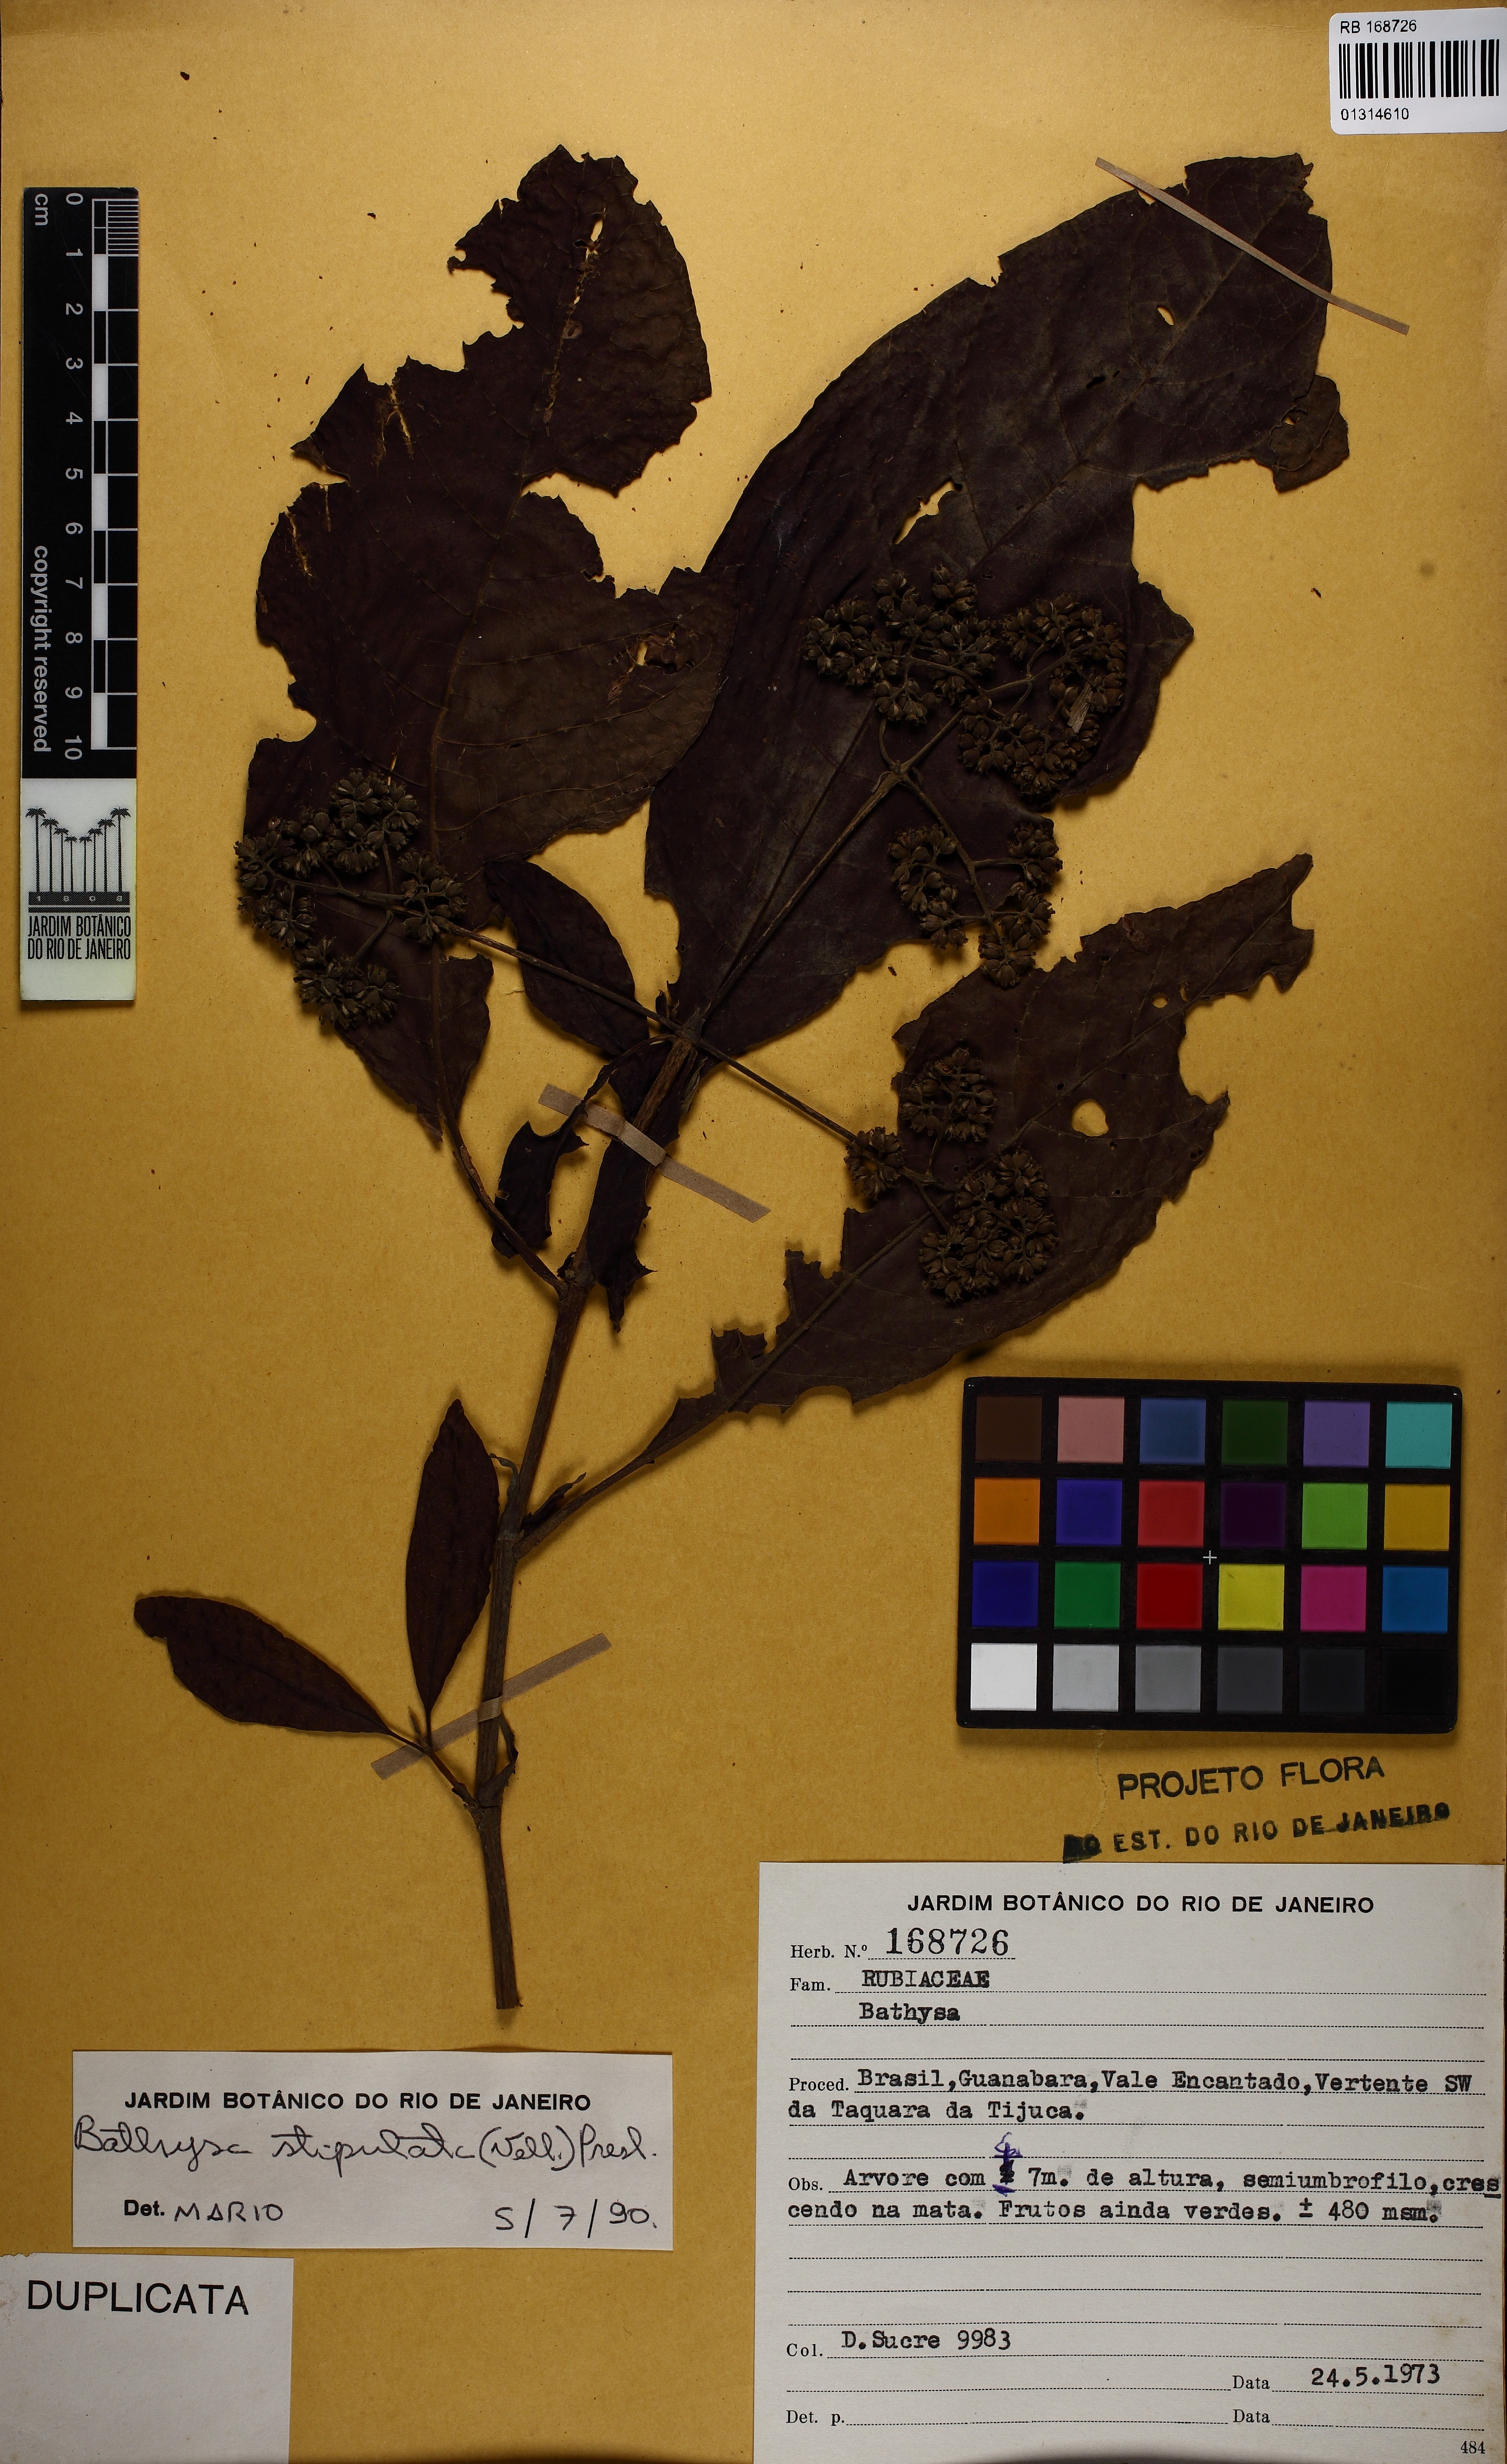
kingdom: Plantae
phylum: Tracheophyta
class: Magnoliopsida
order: Gentianales
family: Rubiaceae
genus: Bathysa
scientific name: Bathysa stipulata
